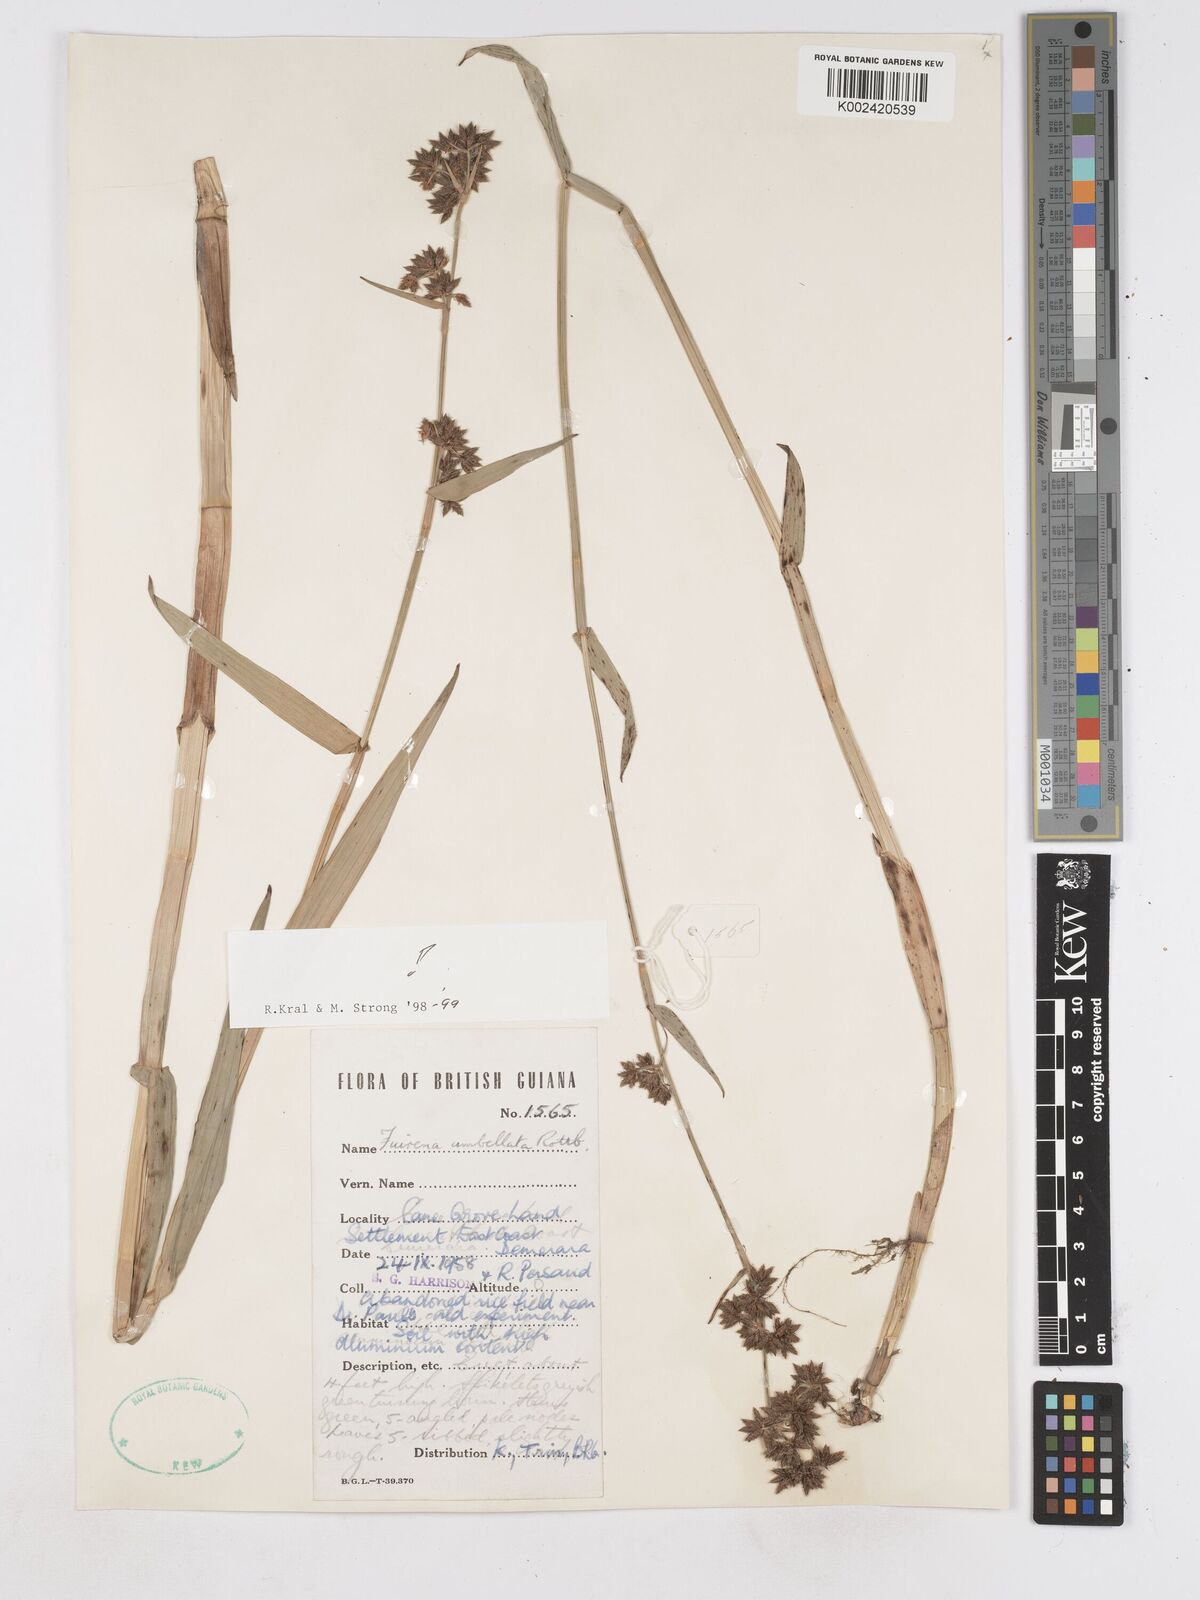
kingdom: Plantae
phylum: Tracheophyta
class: Liliopsida
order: Poales
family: Cyperaceae
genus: Fuirena
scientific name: Fuirena umbellata
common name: Yefen
